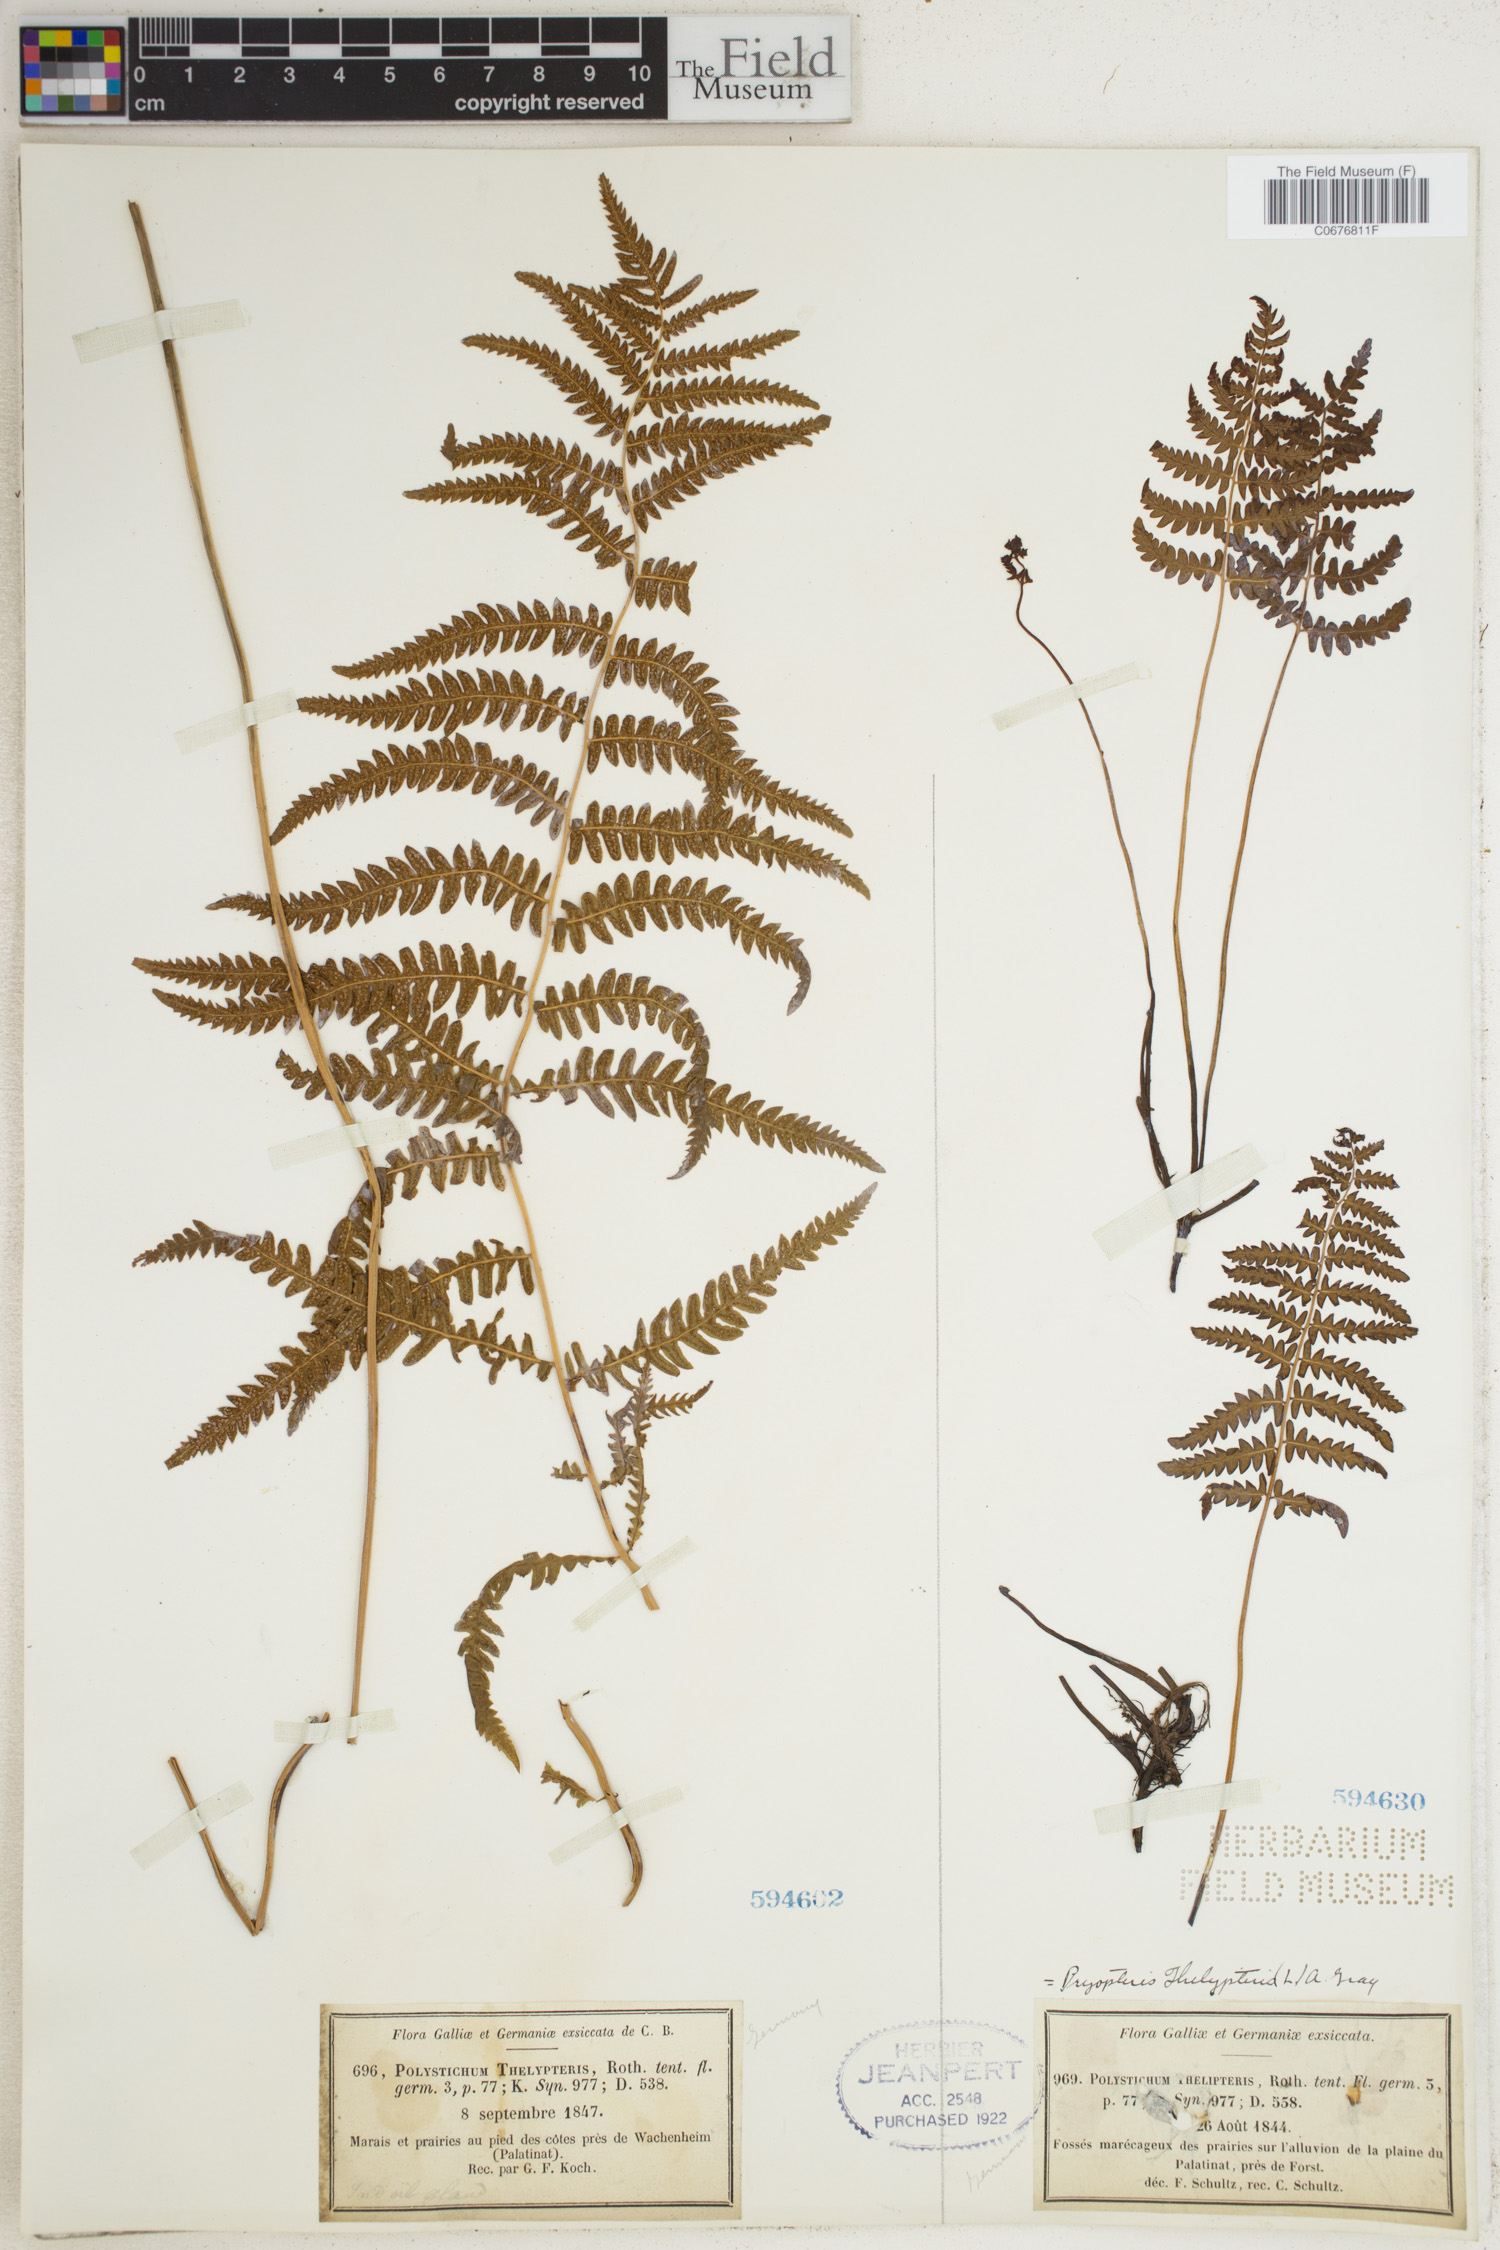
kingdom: Plantae
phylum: Tracheophyta
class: Polypodiopsida
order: Polypodiales
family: Thelypteridaceae
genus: Thelypteris
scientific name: Thelypteris palustris
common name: Marsh fern
